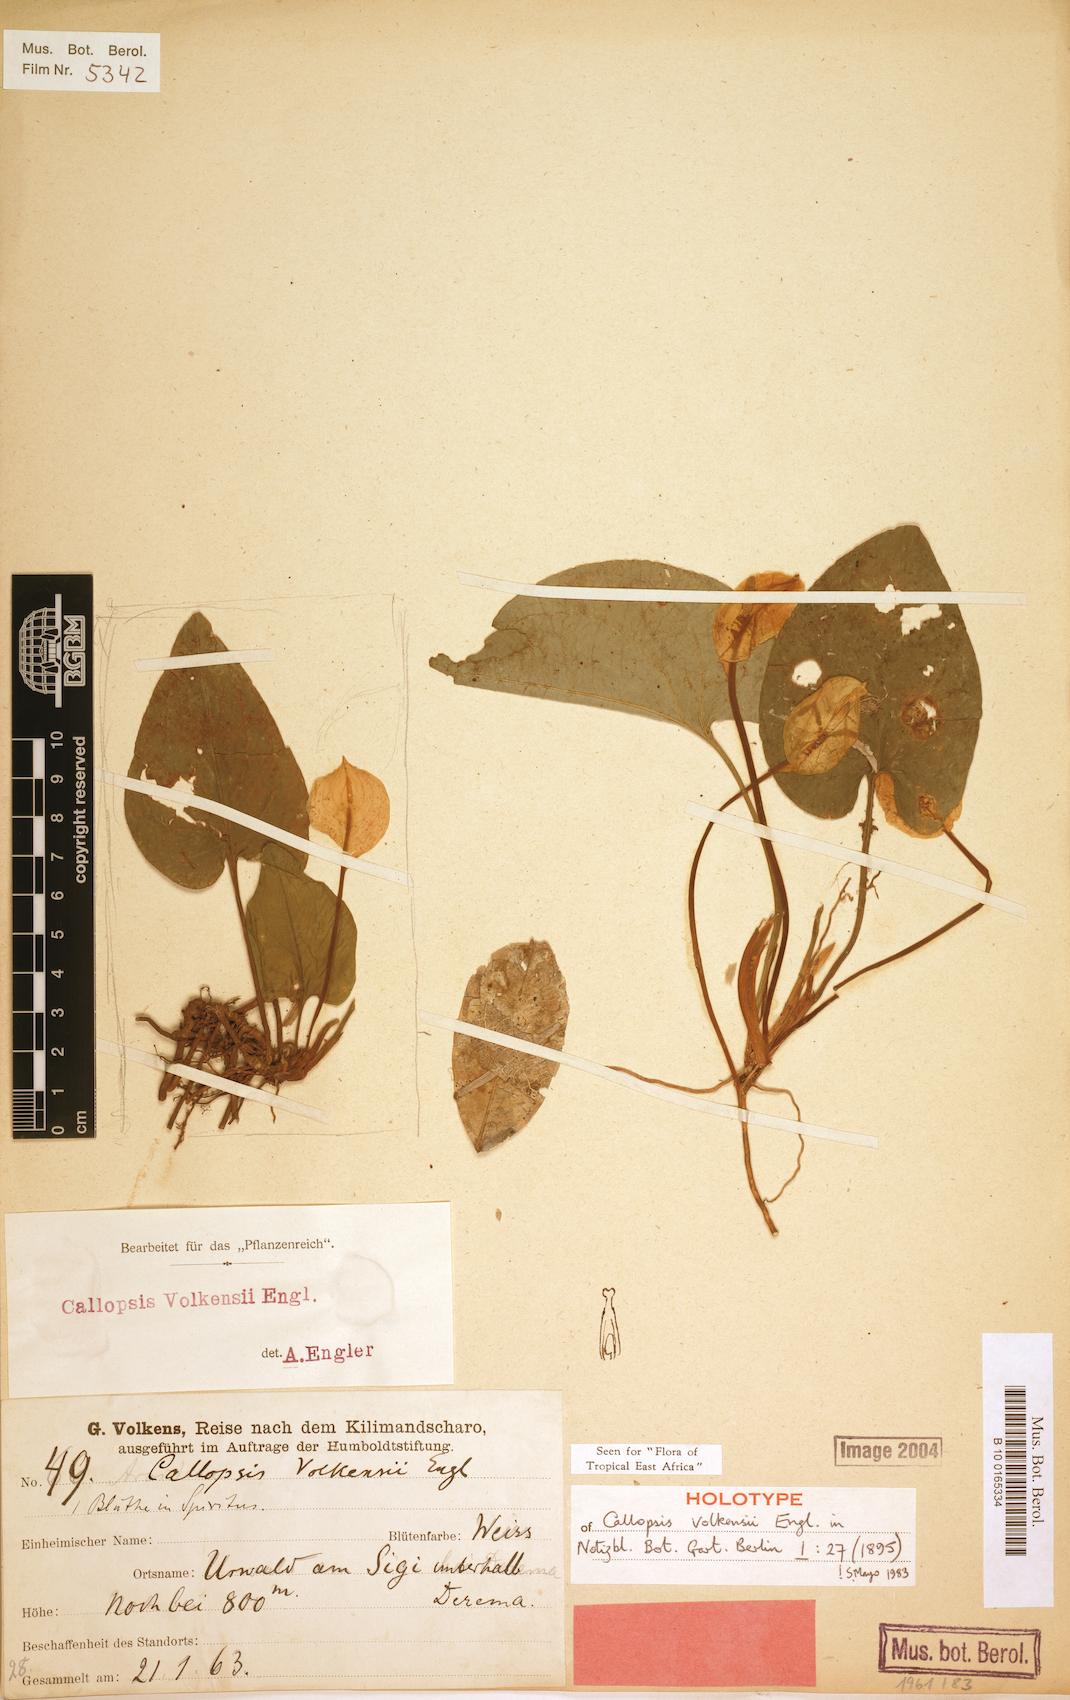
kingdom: Plantae
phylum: Tracheophyta
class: Liliopsida
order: Alismatales
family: Araceae
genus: Callopsis
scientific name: Callopsis volkensii
